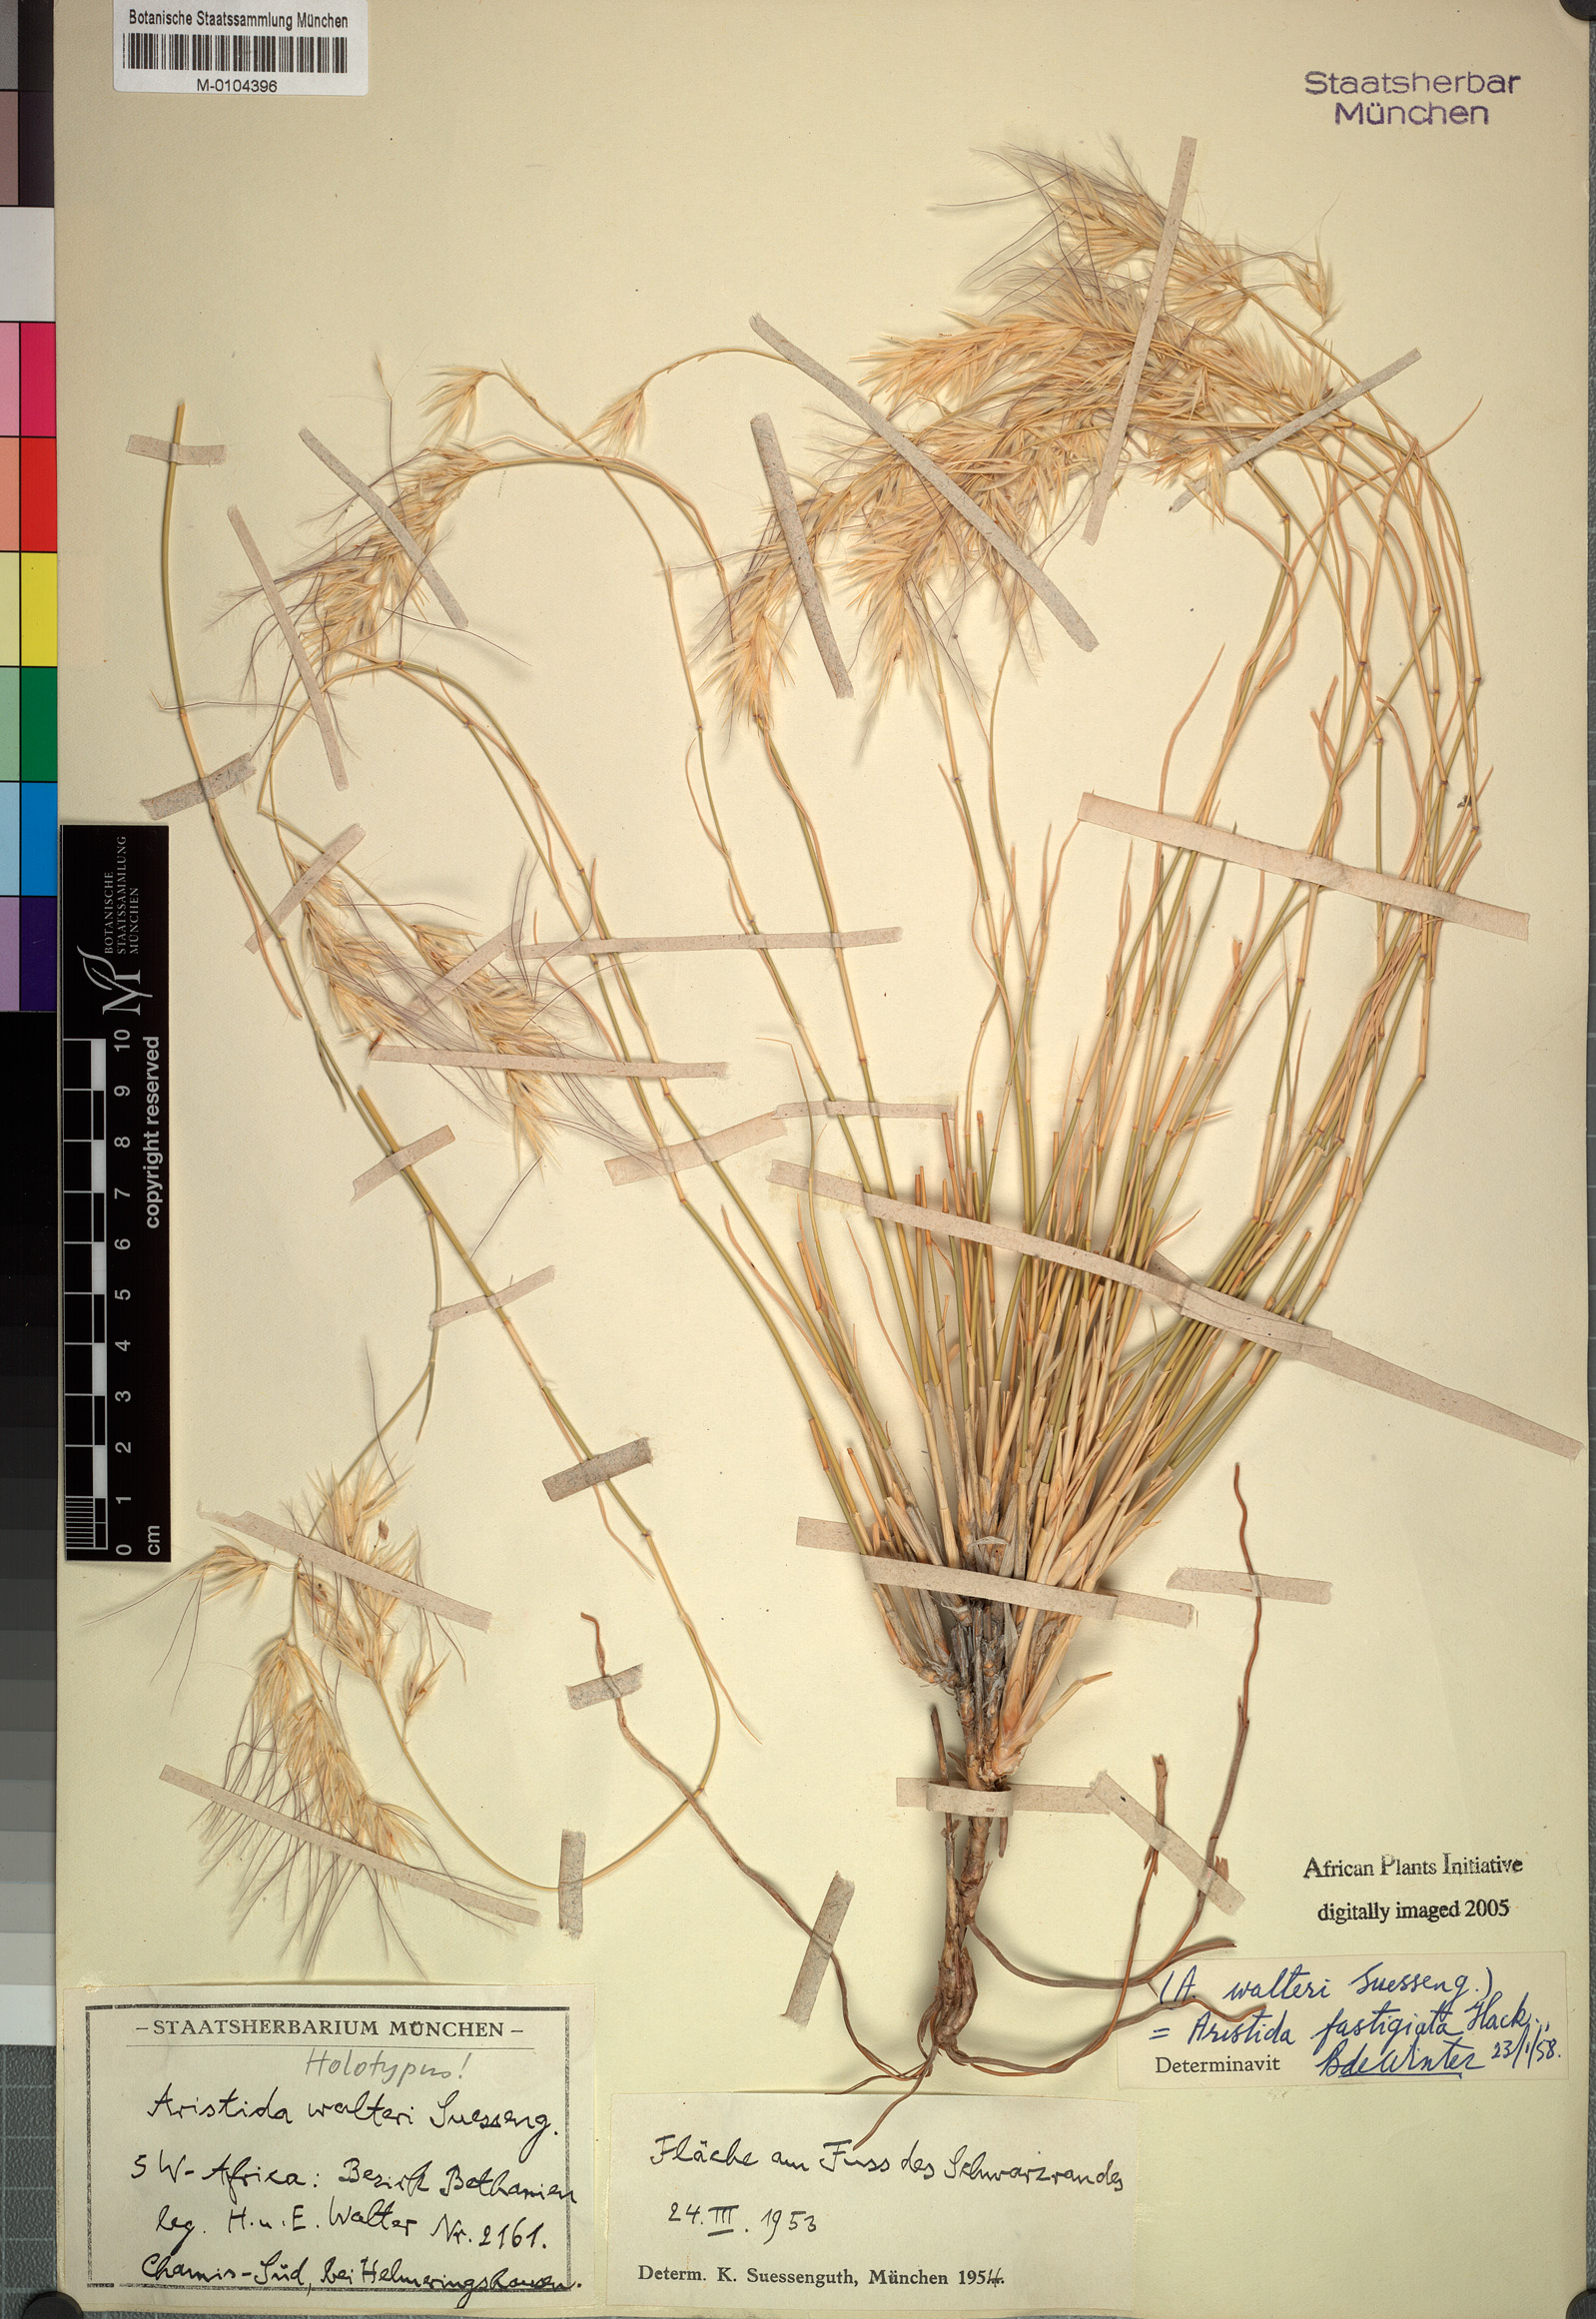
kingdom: Plantae
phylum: Tracheophyta
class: Liliopsida
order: Poales
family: Poaceae
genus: Stipagrostis
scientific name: Stipagrostis fastigiata
